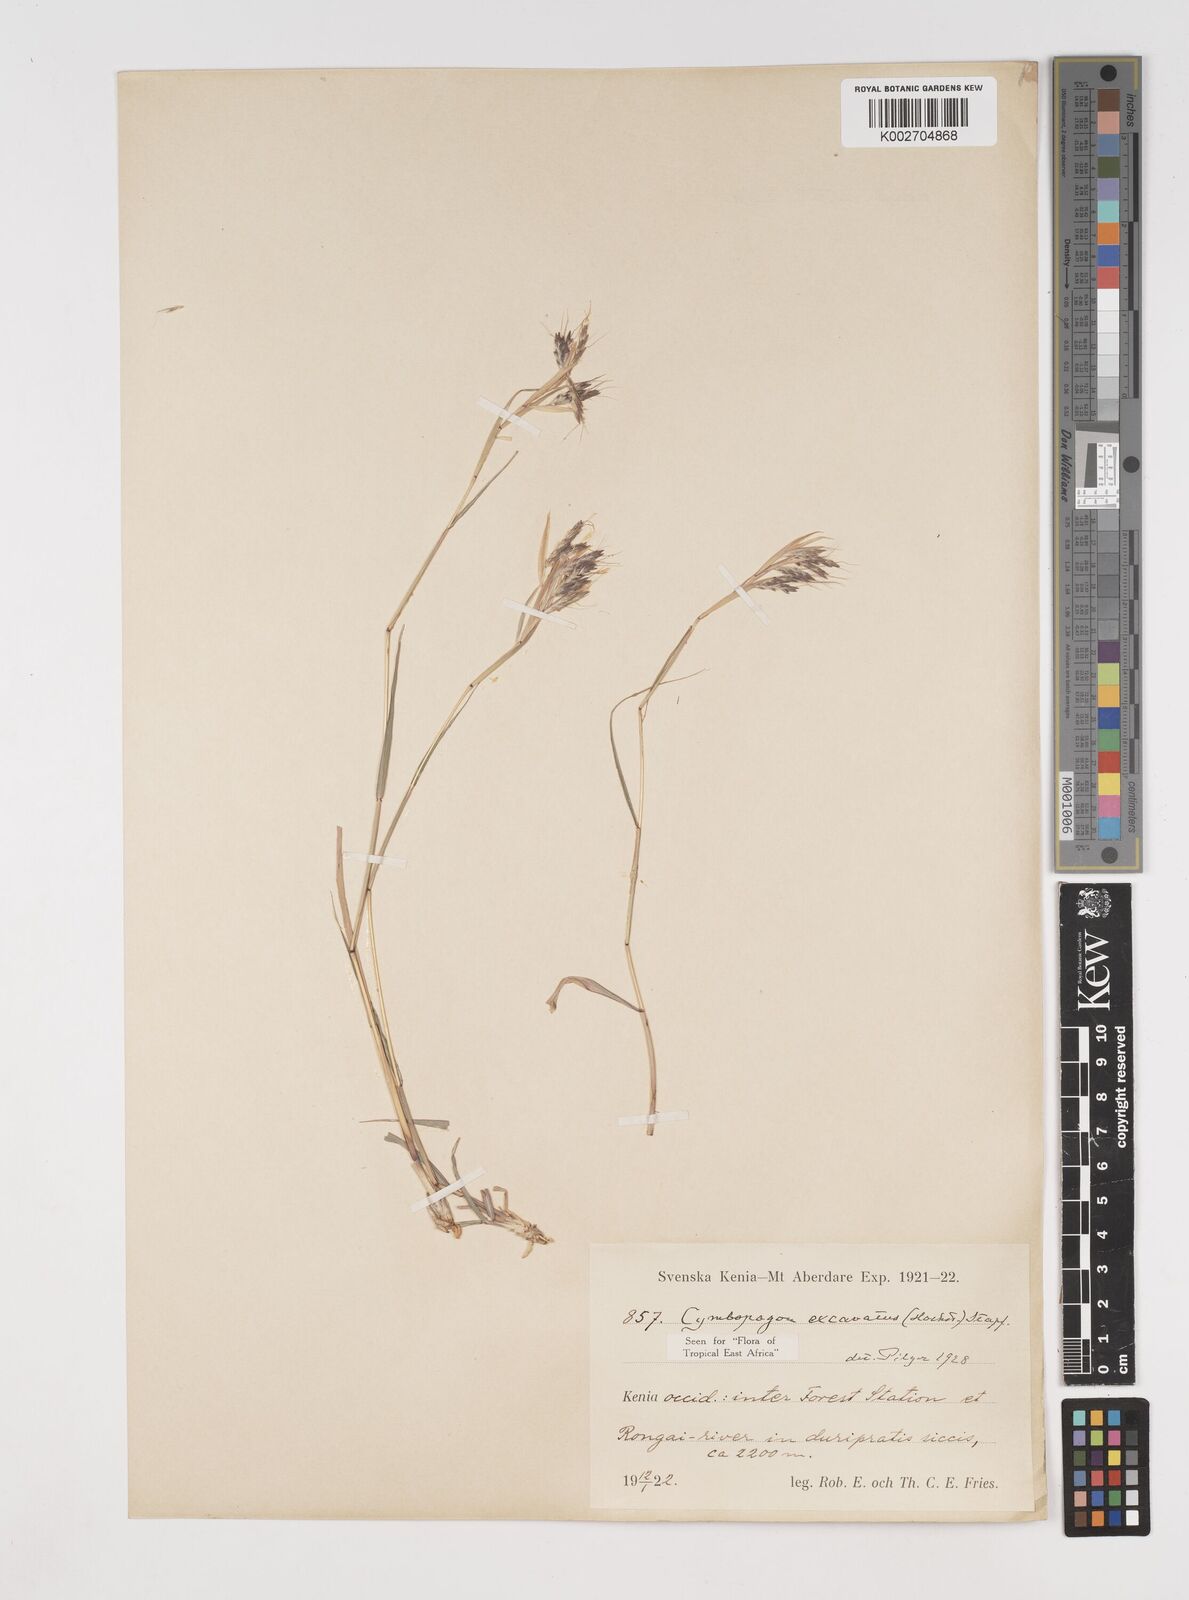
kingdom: Plantae
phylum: Tracheophyta
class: Liliopsida
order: Poales
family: Poaceae
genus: Cymbopogon
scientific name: Cymbopogon caesius
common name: Kachi grass
